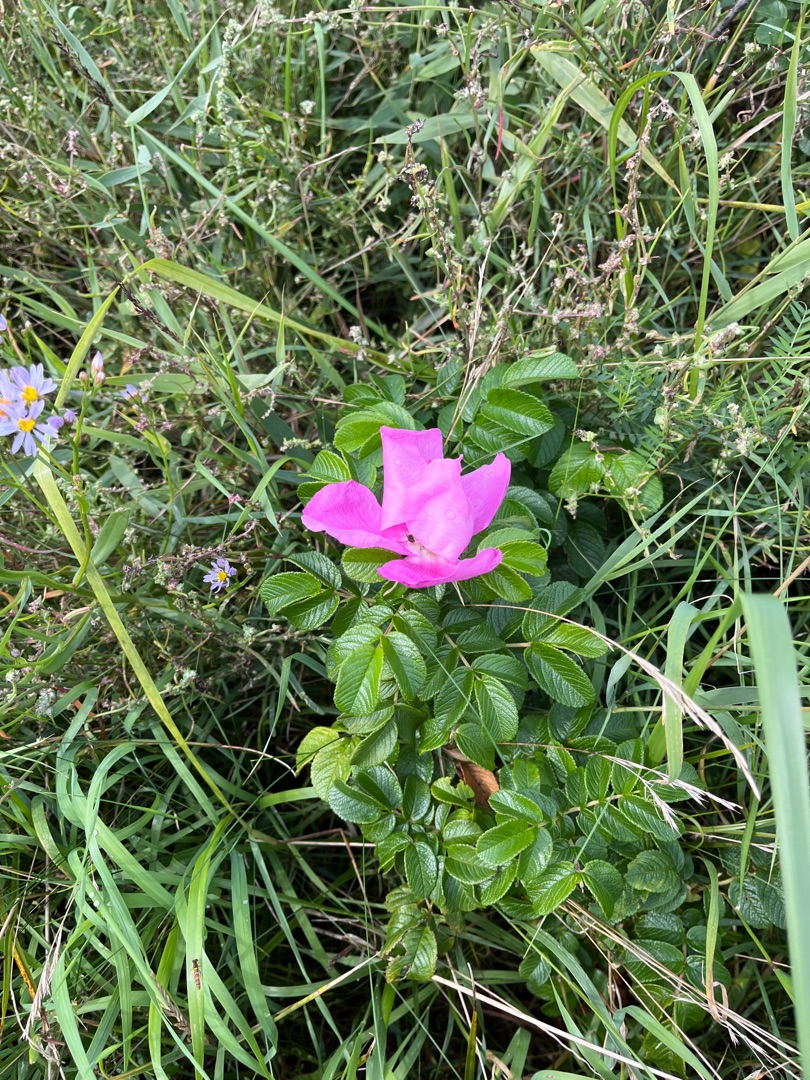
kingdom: Plantae
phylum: Tracheophyta
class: Magnoliopsida
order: Rosales
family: Rosaceae
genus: Rosa
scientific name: Rosa rugosa
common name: Rynket rose
